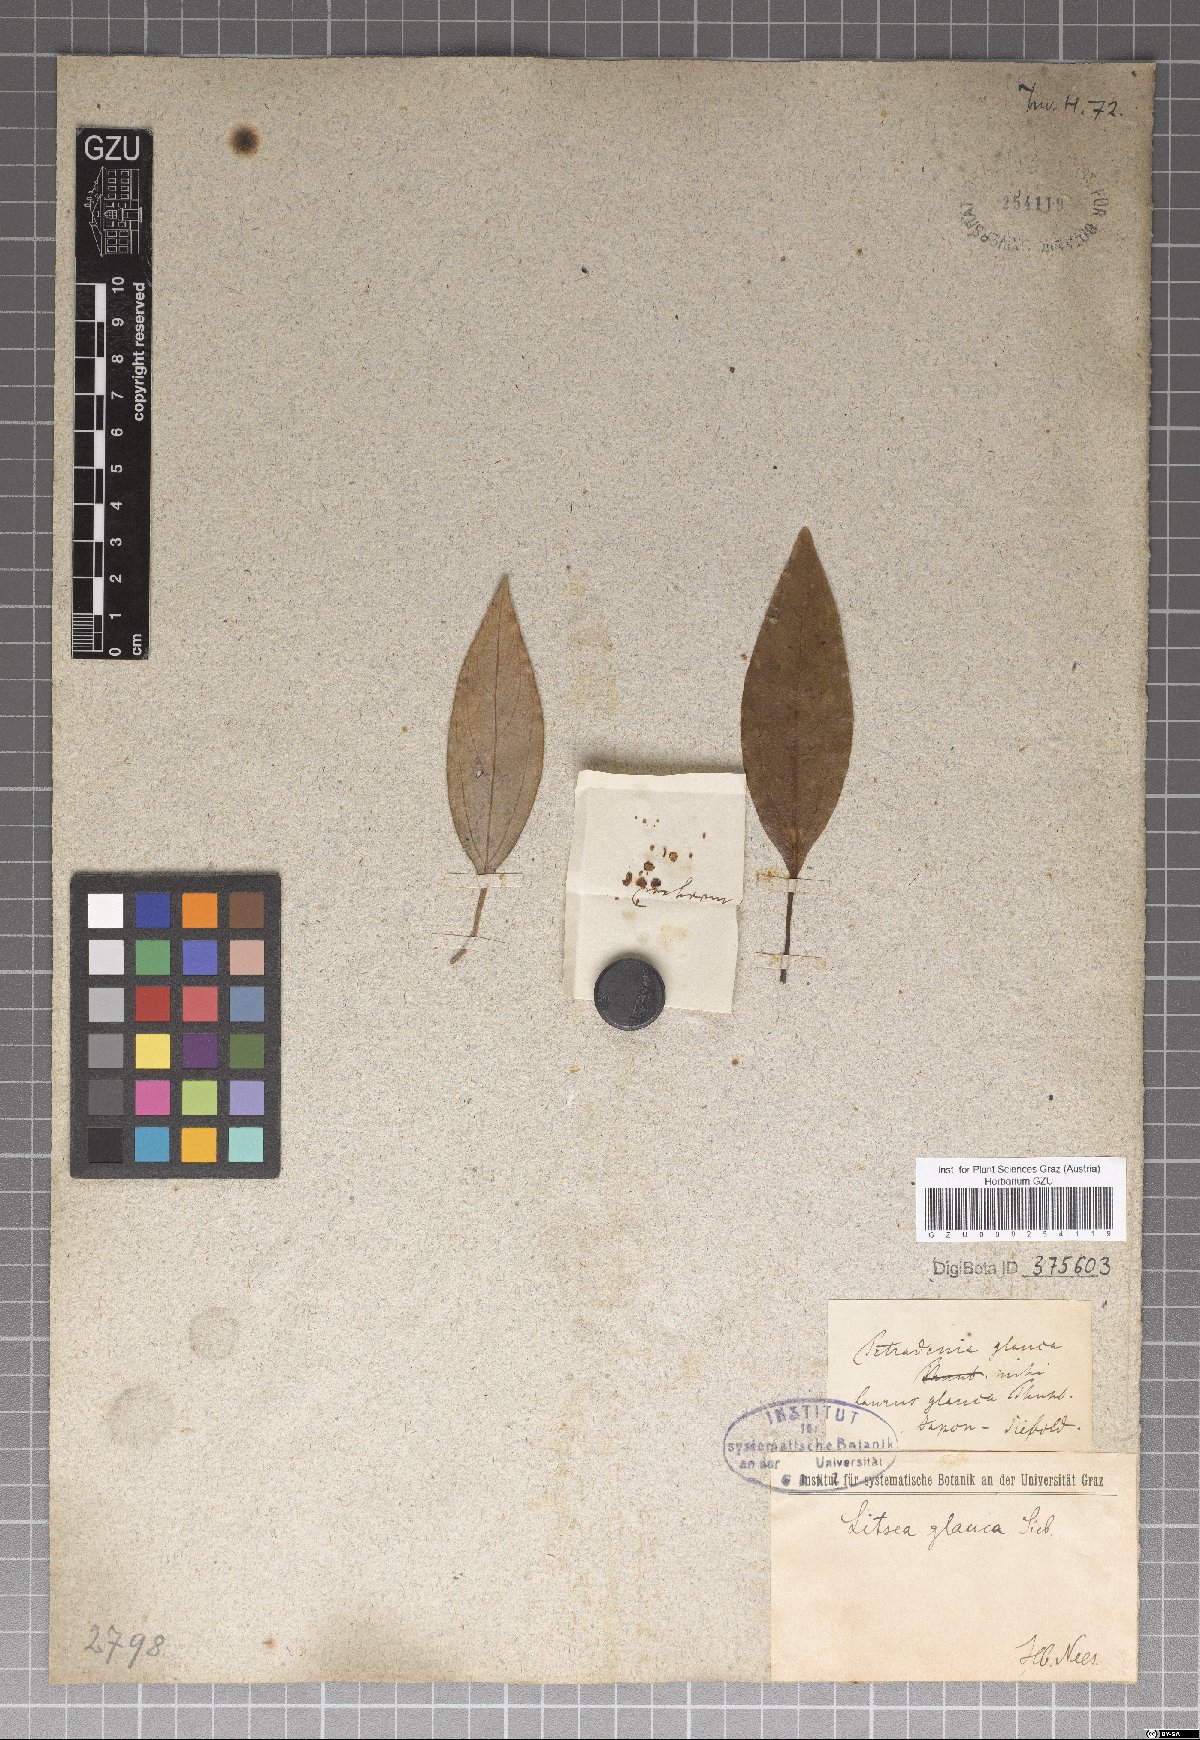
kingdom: Plantae
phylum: Tracheophyta
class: Magnoliopsida
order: Laurales
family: Lauraceae
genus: Neolitsea
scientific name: Neolitsea sericea
